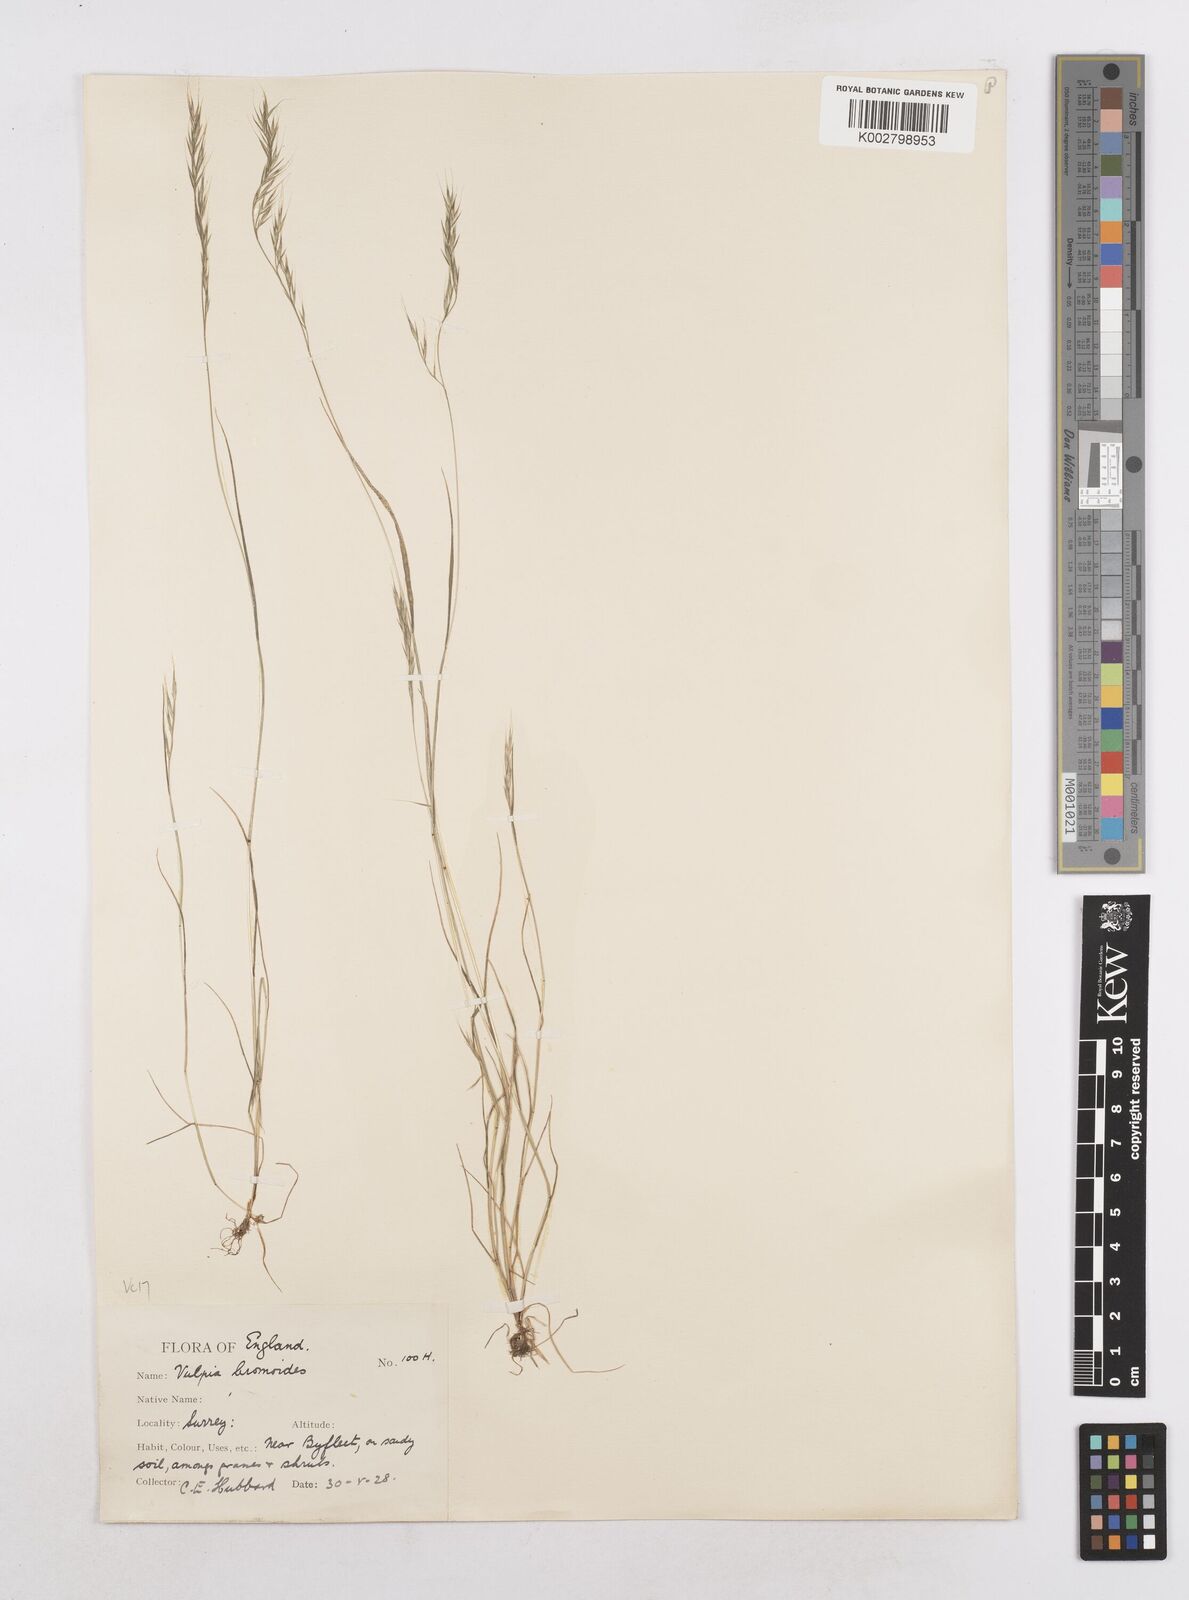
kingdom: Plantae
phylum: Tracheophyta
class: Liliopsida
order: Poales
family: Poaceae
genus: Festuca
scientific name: Festuca bromoides
